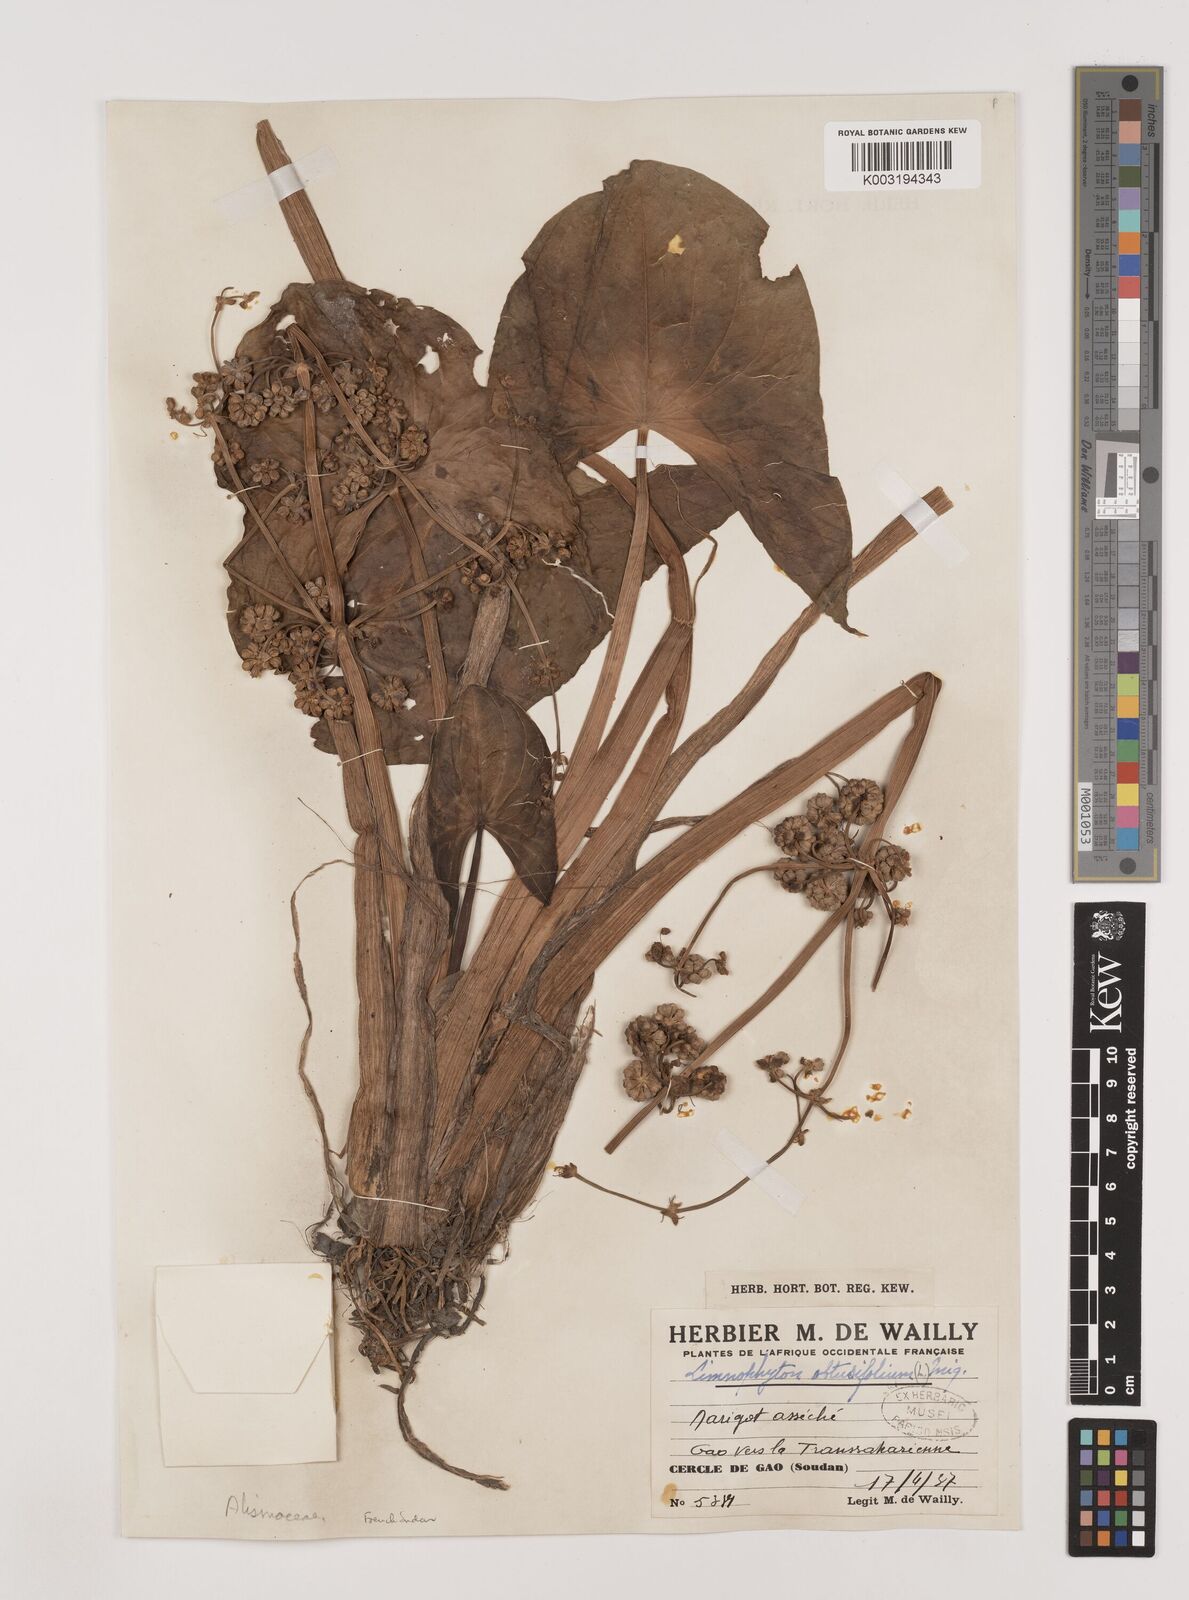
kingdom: Plantae
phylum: Tracheophyta
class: Liliopsida
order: Alismatales
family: Alismataceae
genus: Limnophyton
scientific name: Limnophyton obtusifolium
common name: Arrow head
